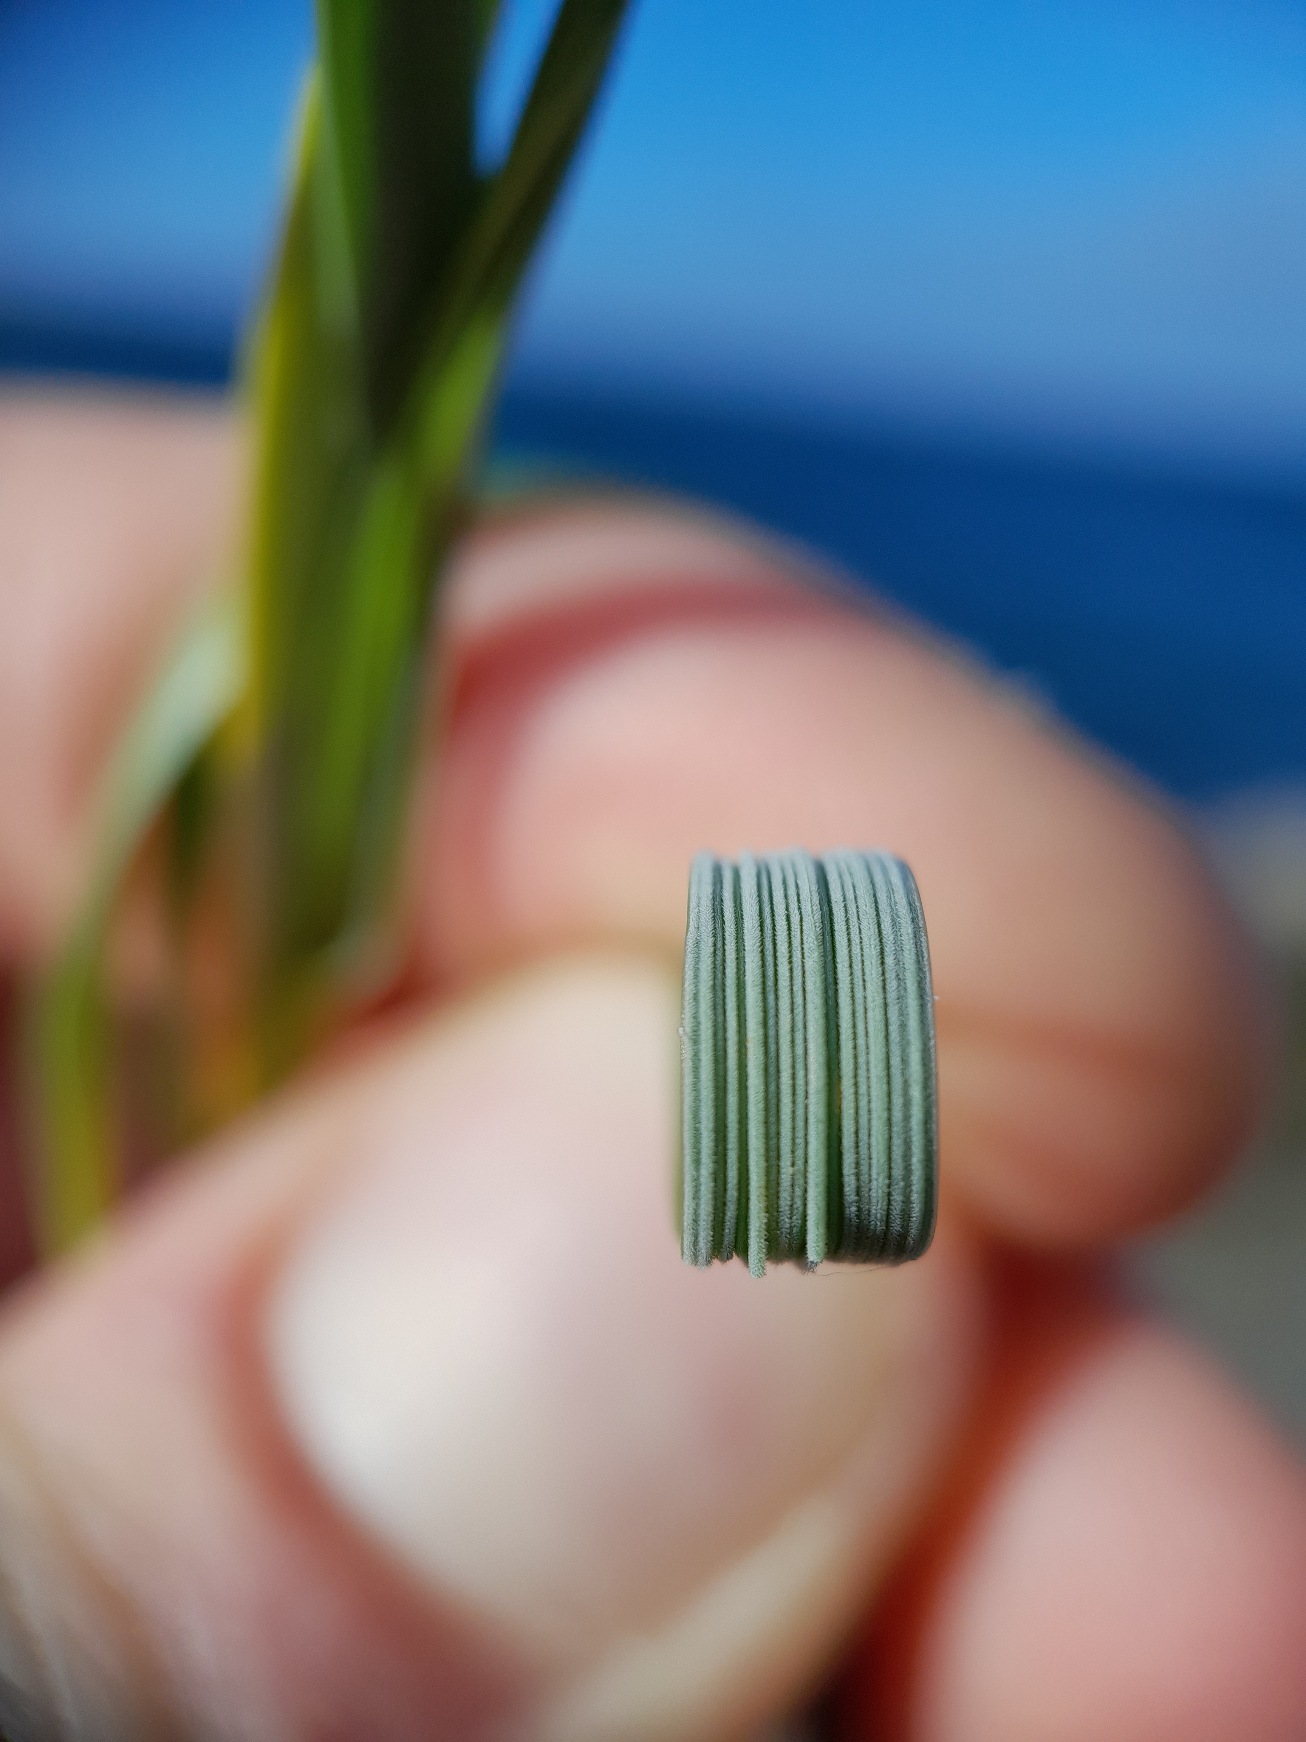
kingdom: Plantae
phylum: Tracheophyta
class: Liliopsida
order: Poales
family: Poaceae
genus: Thinopyrum
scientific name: Thinopyrum junceum
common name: Strand-kvik
